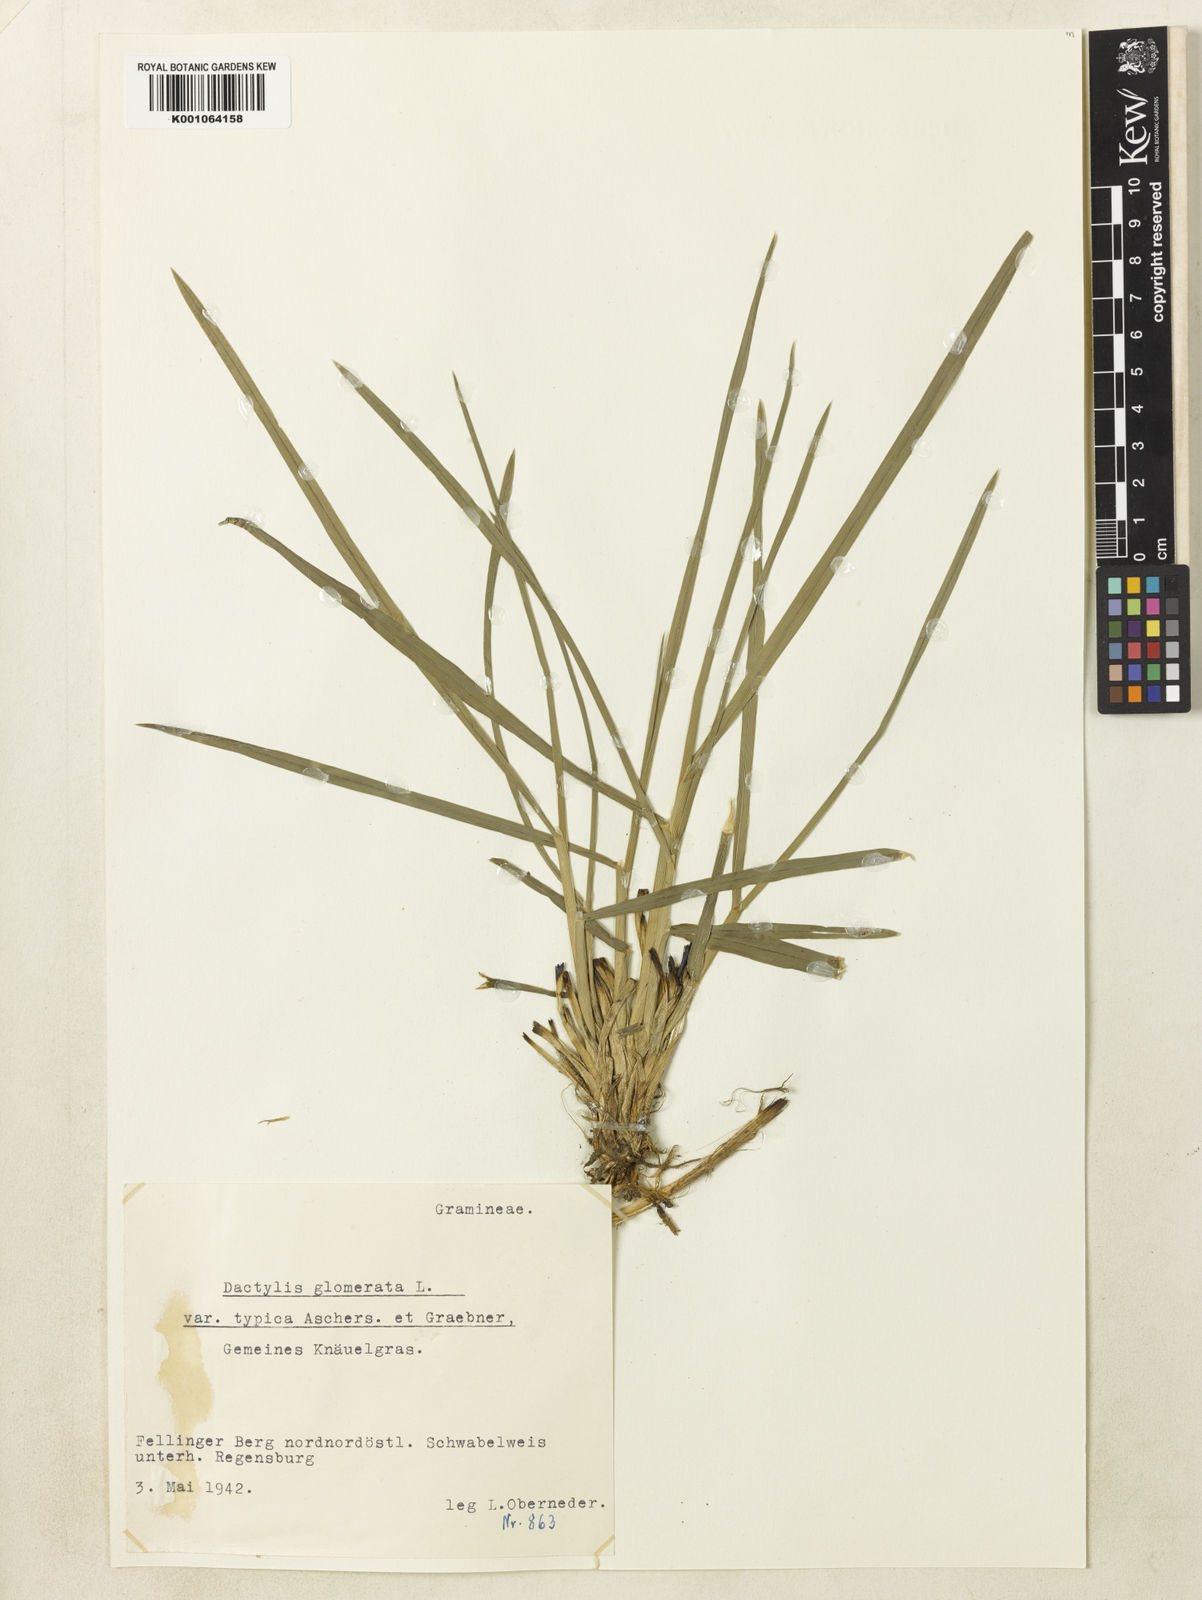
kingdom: Plantae
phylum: Tracheophyta
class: Liliopsida
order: Poales
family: Poaceae
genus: Dactylis
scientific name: Dactylis glomerata
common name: Orchardgrass
